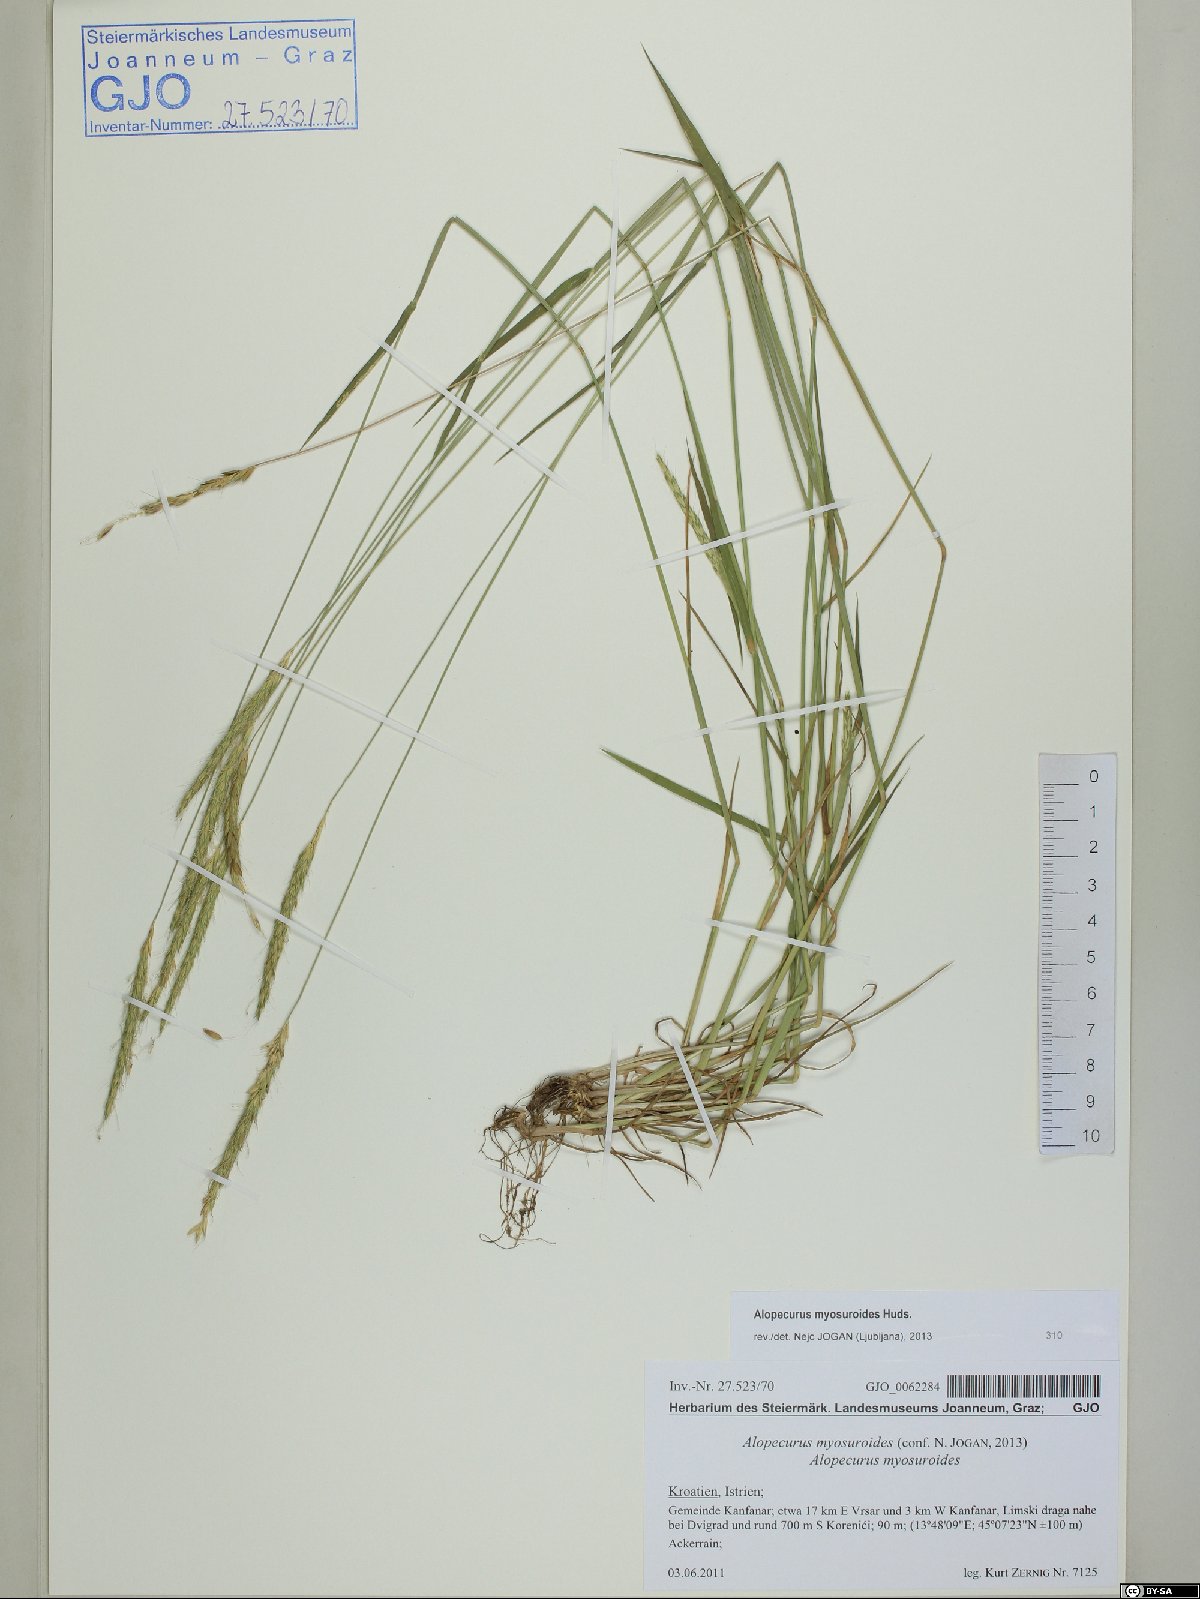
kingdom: Plantae
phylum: Tracheophyta
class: Liliopsida
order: Poales
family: Poaceae
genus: Alopecurus
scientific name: Alopecurus myosuroides
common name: Black-grass
